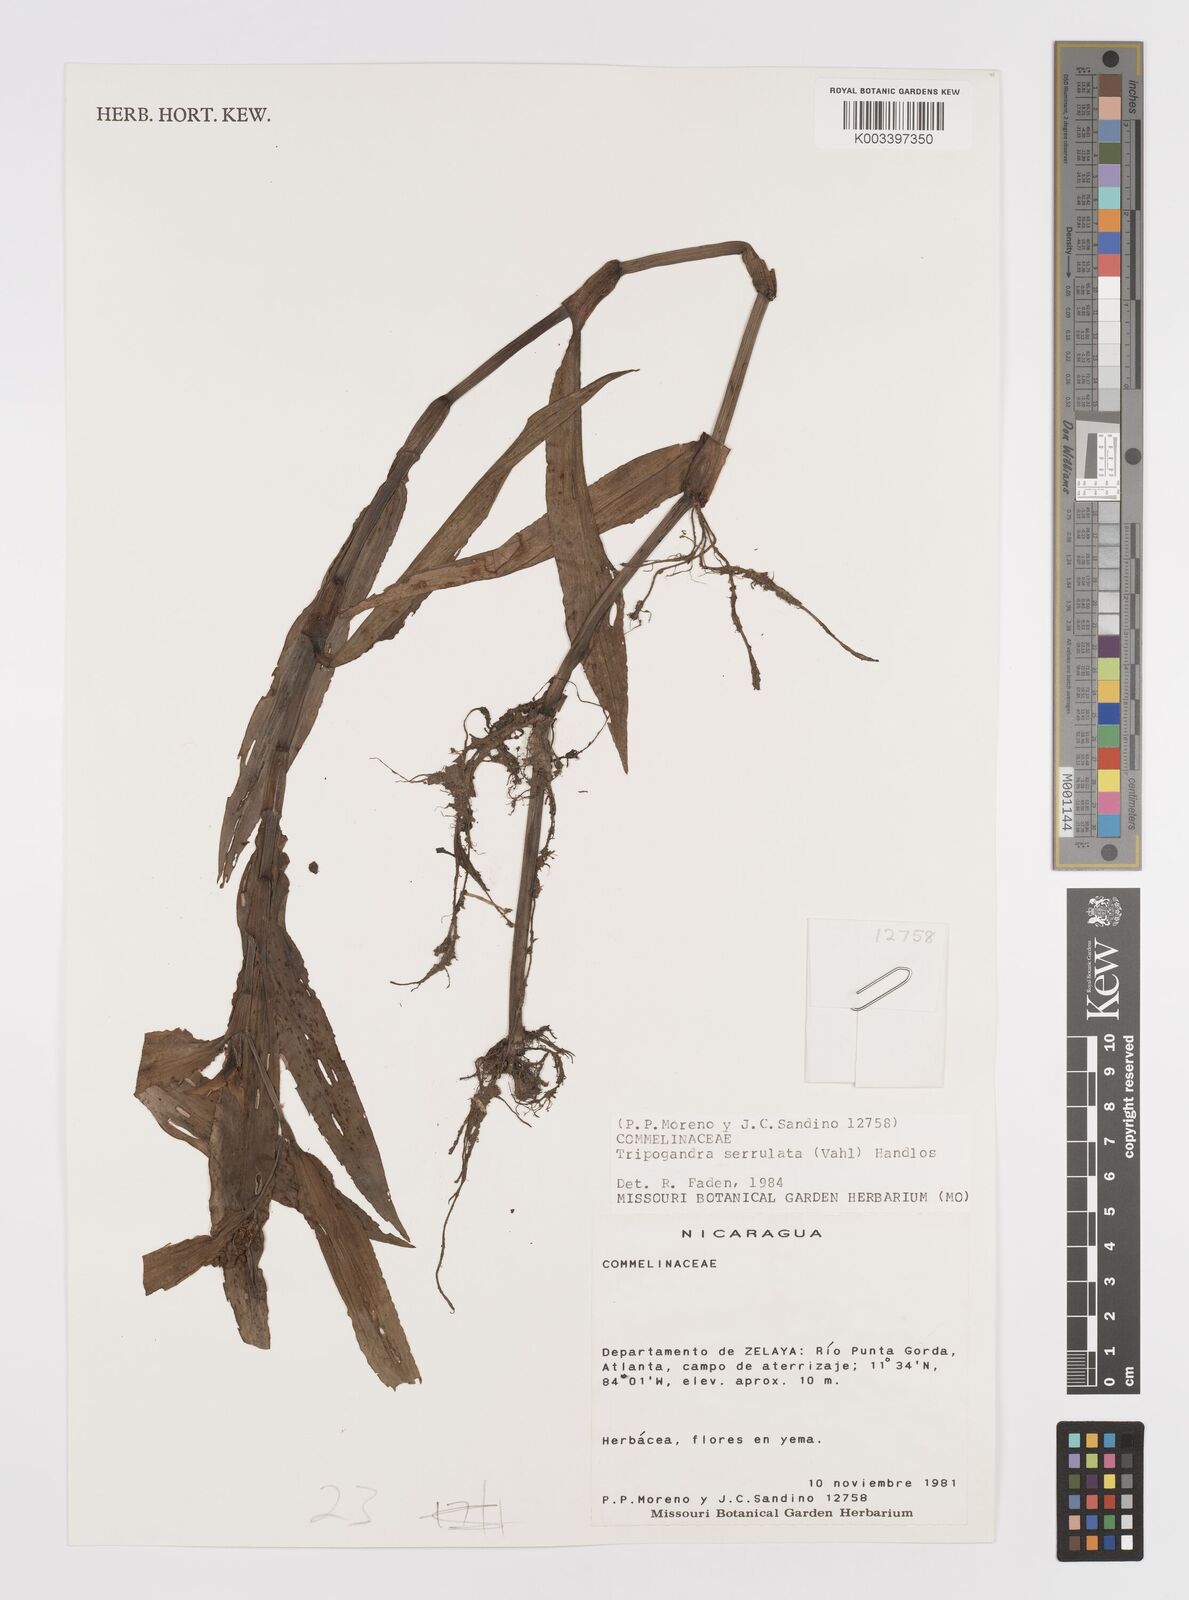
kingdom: Plantae
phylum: Tracheophyta
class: Liliopsida
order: Commelinales
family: Commelinaceae
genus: Callisia
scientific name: Callisia serrulata
